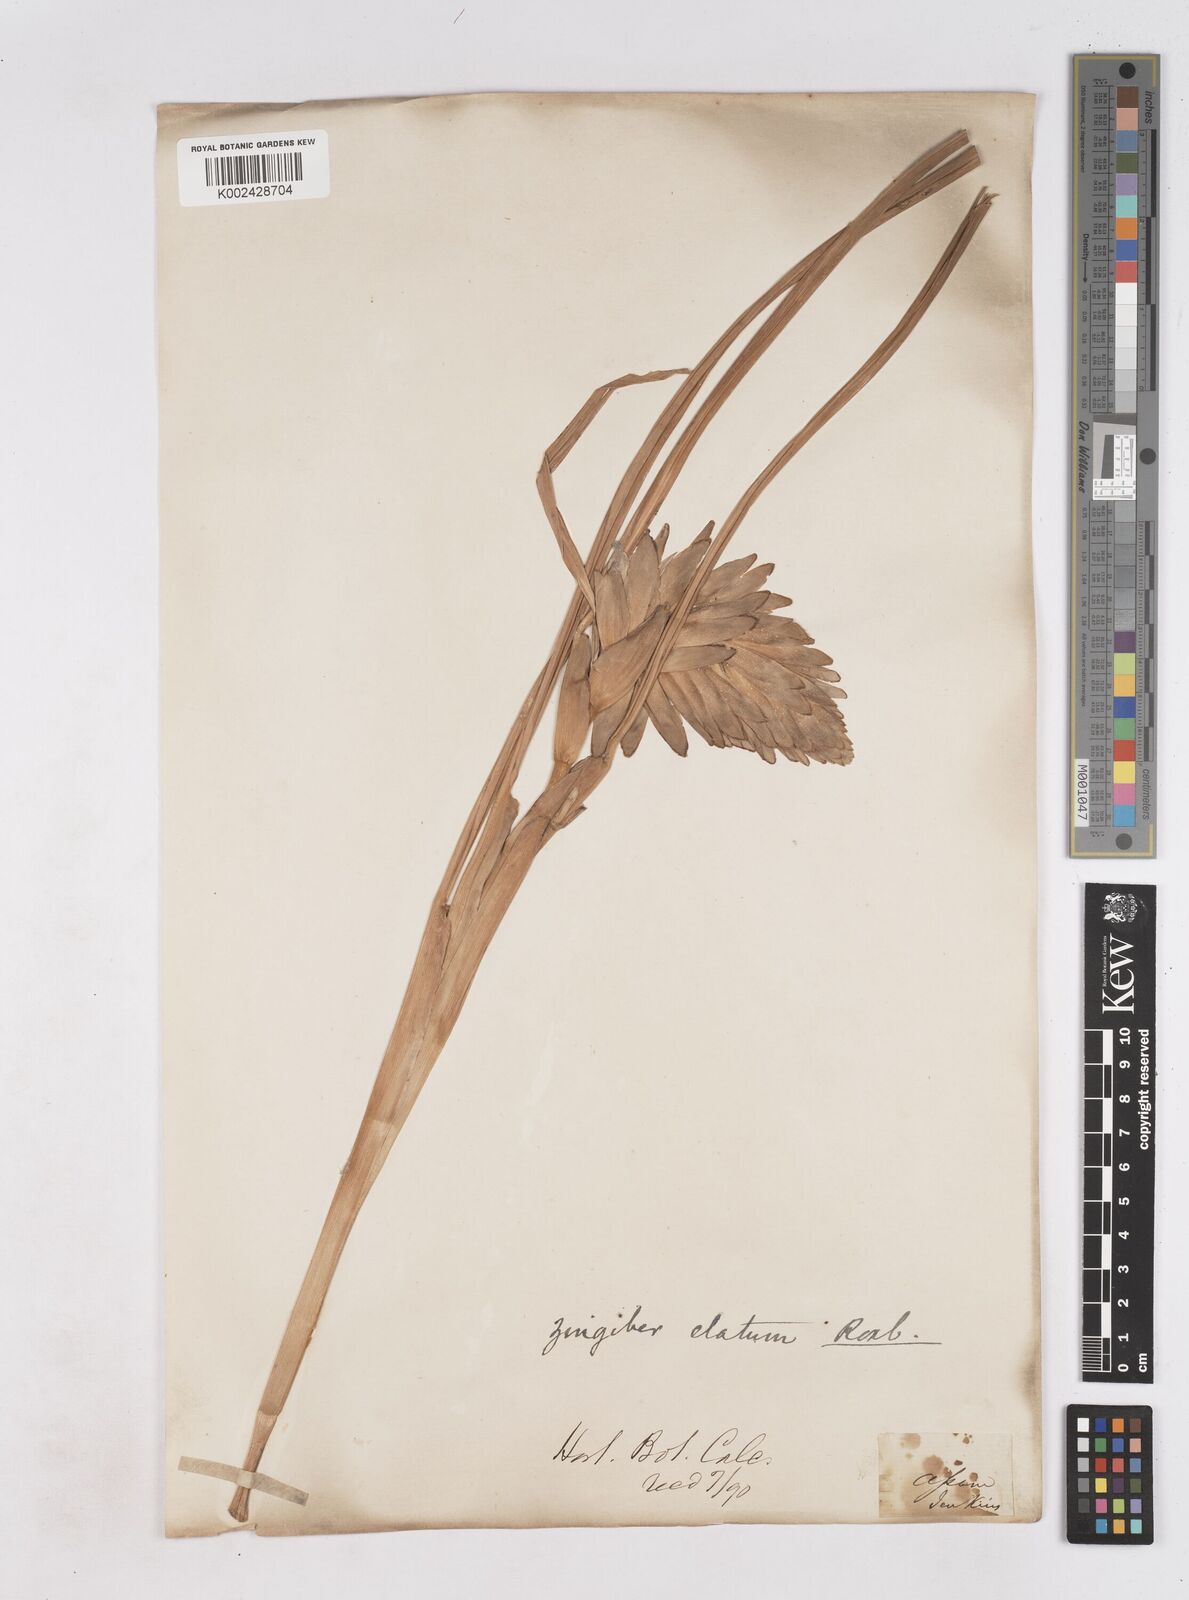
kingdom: Plantae
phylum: Tracheophyta
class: Liliopsida
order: Zingiberales
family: Zingiberaceae
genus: Zingiber
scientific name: Zingiber capitatum
